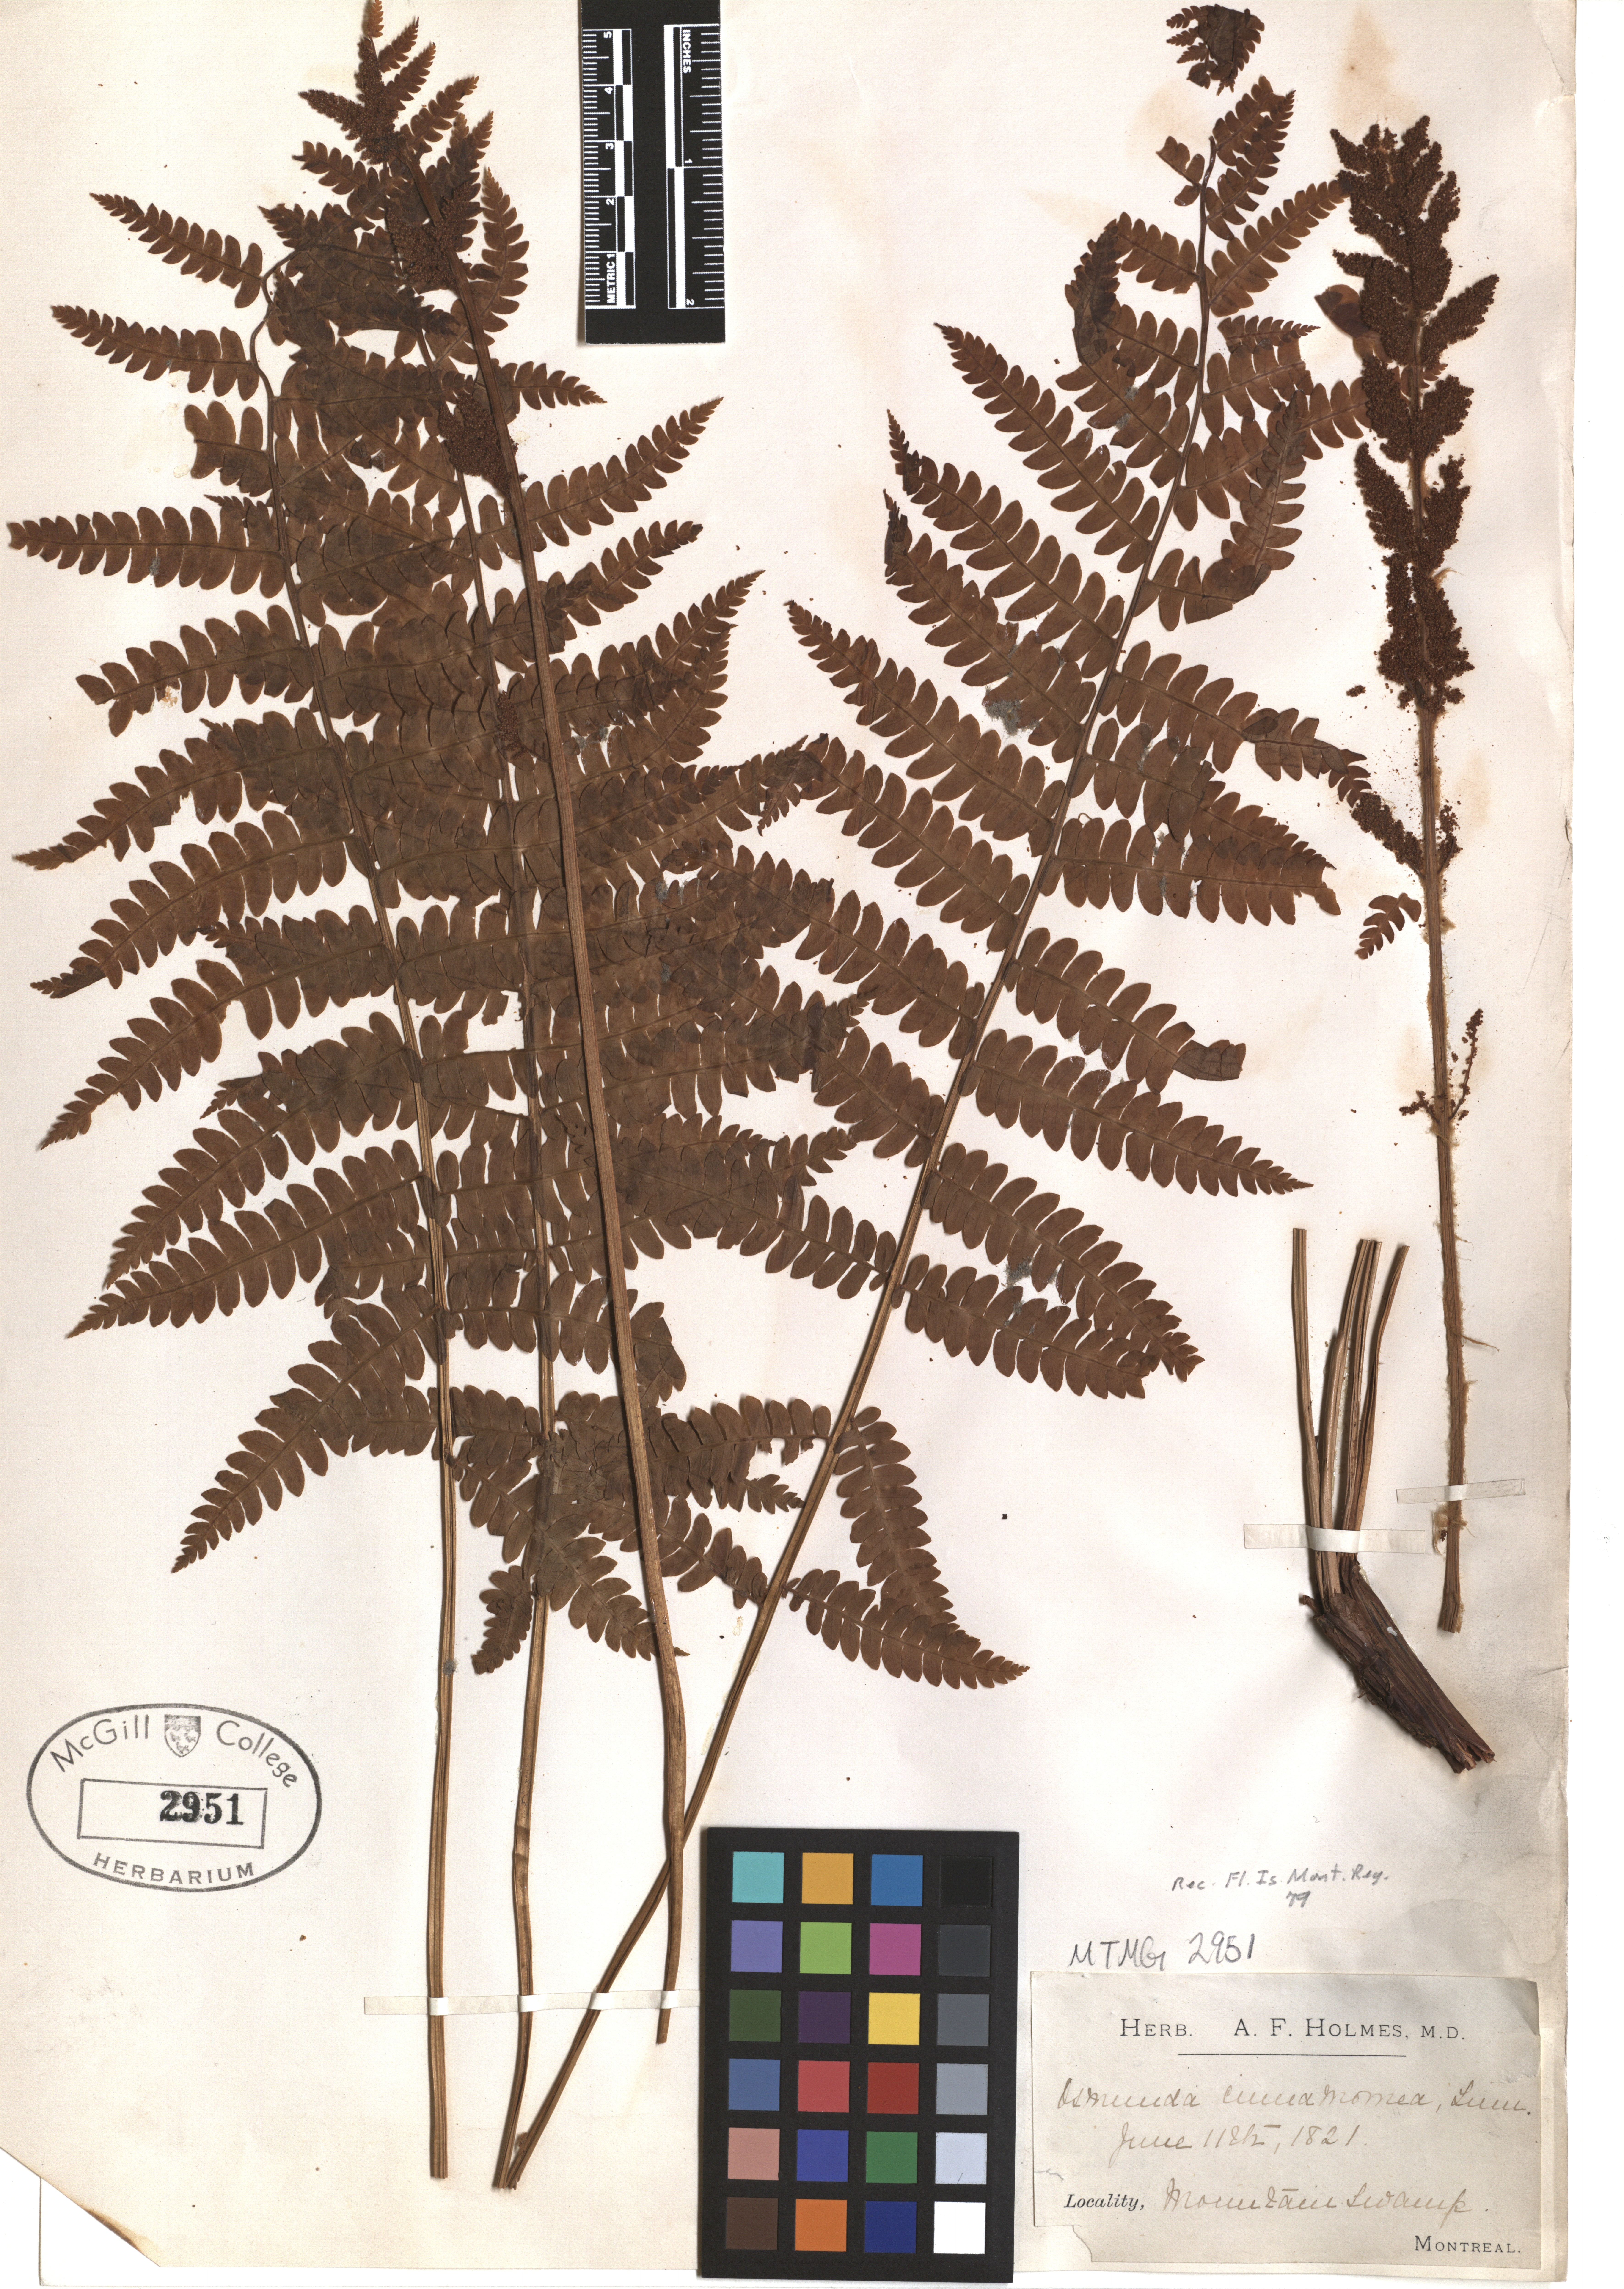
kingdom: Plantae
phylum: Tracheophyta
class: Polypodiopsida
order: Osmundales
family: Osmundaceae
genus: Osmundastrum
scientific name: Osmundastrum cinnamomeum
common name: Cinnamon fern
